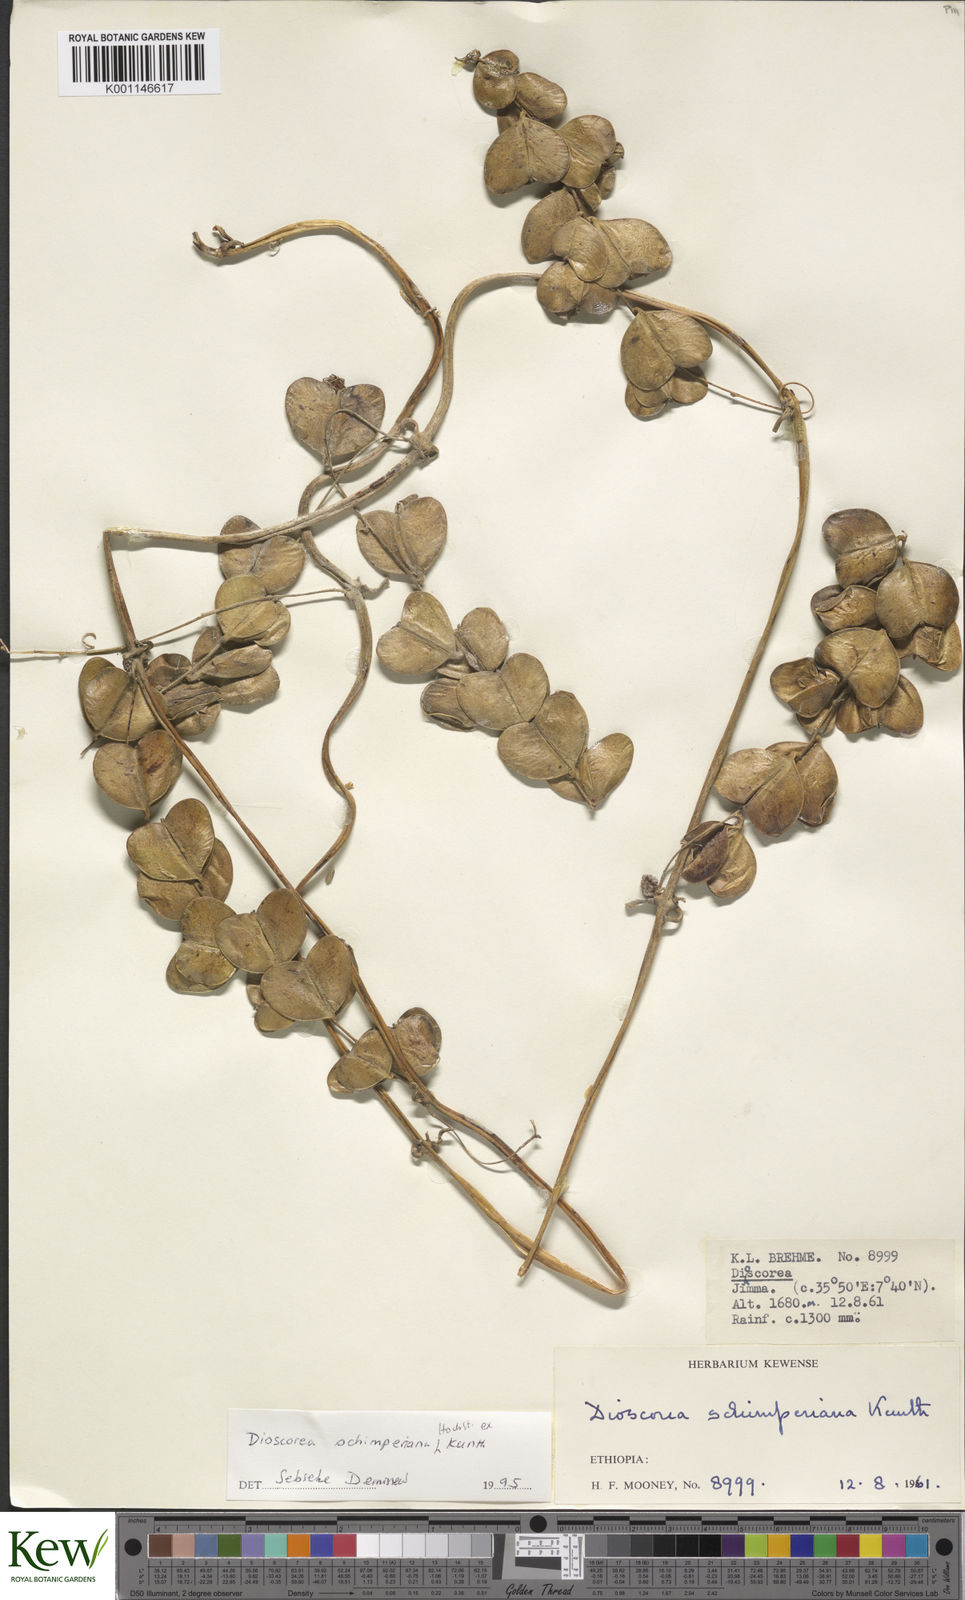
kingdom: Plantae
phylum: Tracheophyta
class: Liliopsida
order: Dioscoreales
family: Dioscoreaceae
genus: Dioscorea
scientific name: Dioscorea schimperiana
